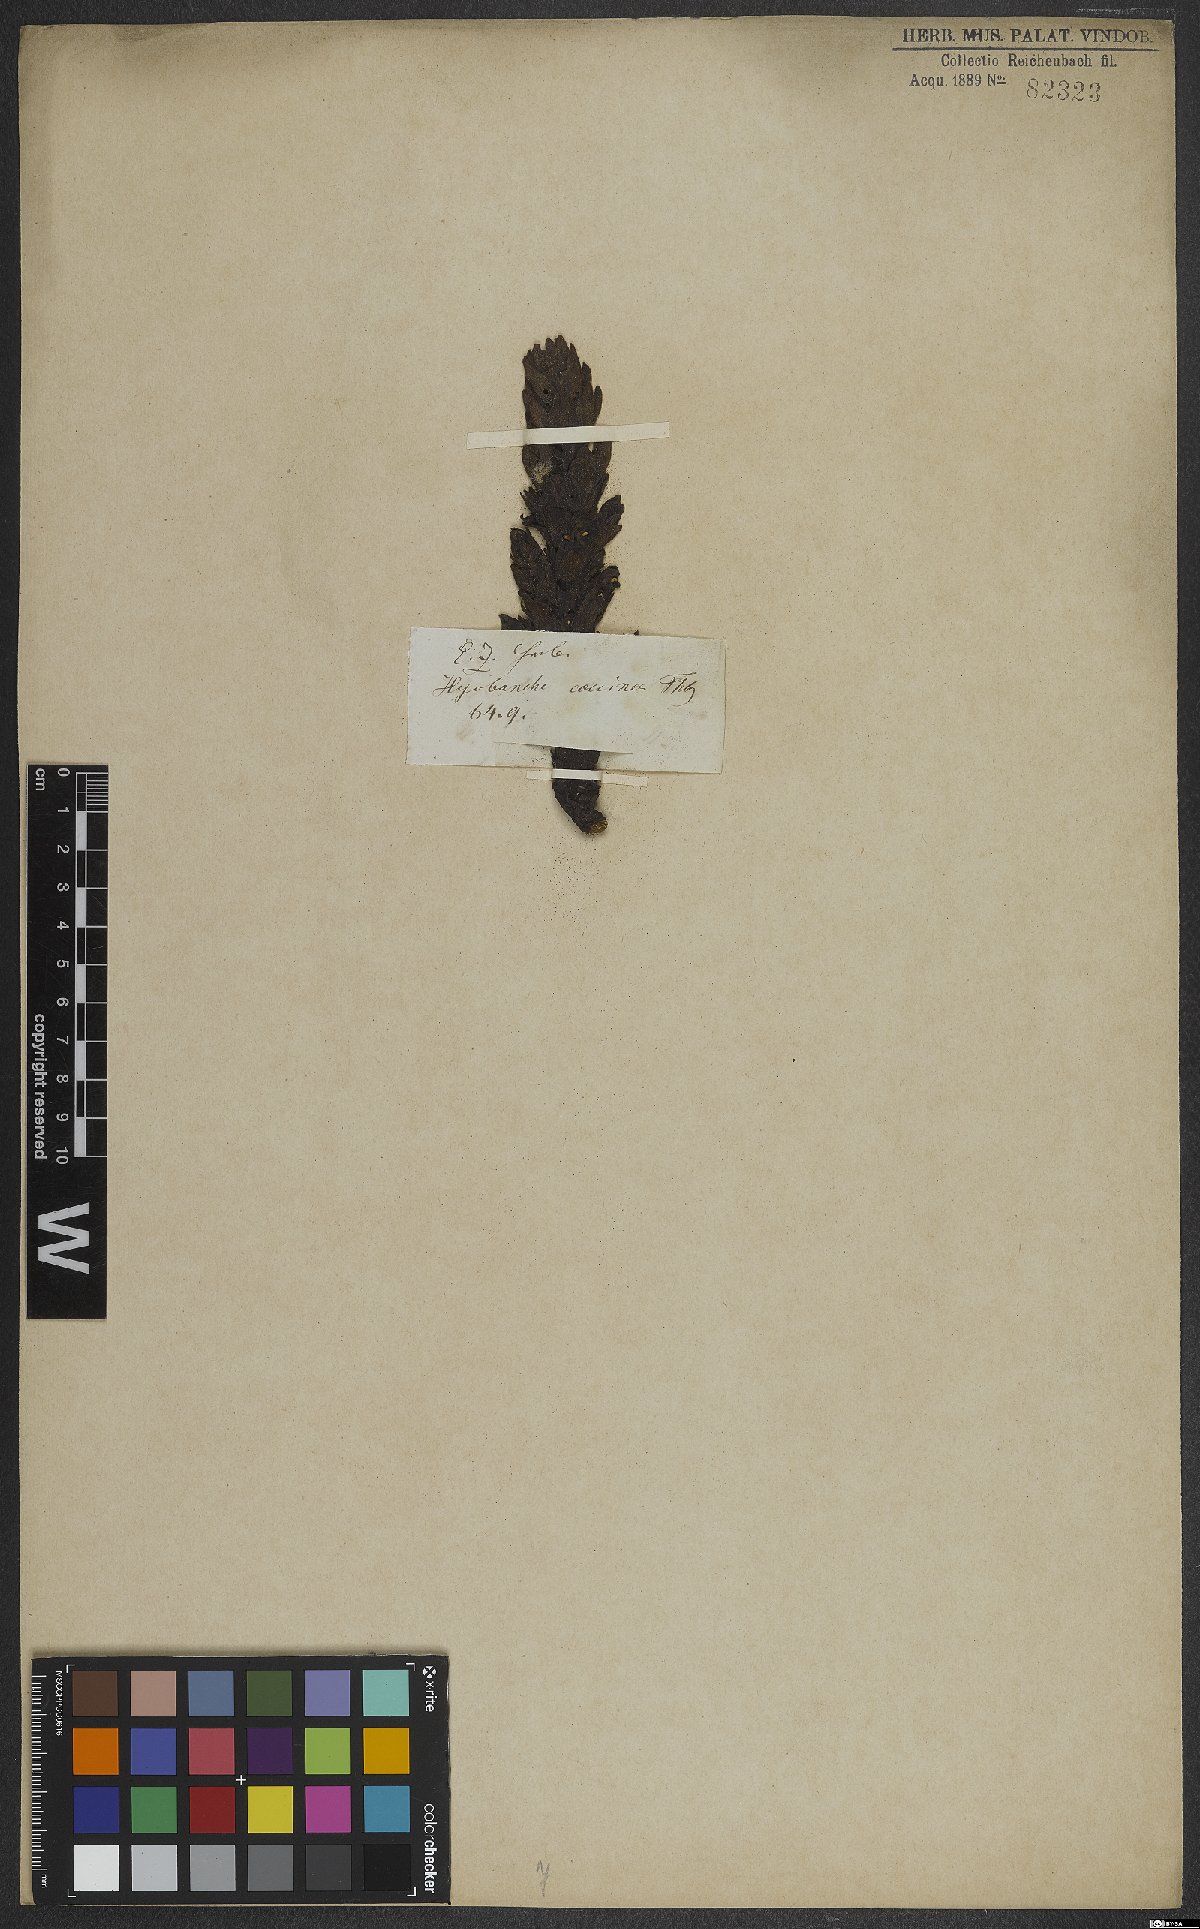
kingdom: Plantae
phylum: Tracheophyta
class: Magnoliopsida
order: Lamiales
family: Orobanchaceae
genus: Hyobanche
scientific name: Hyobanche sanguinea
